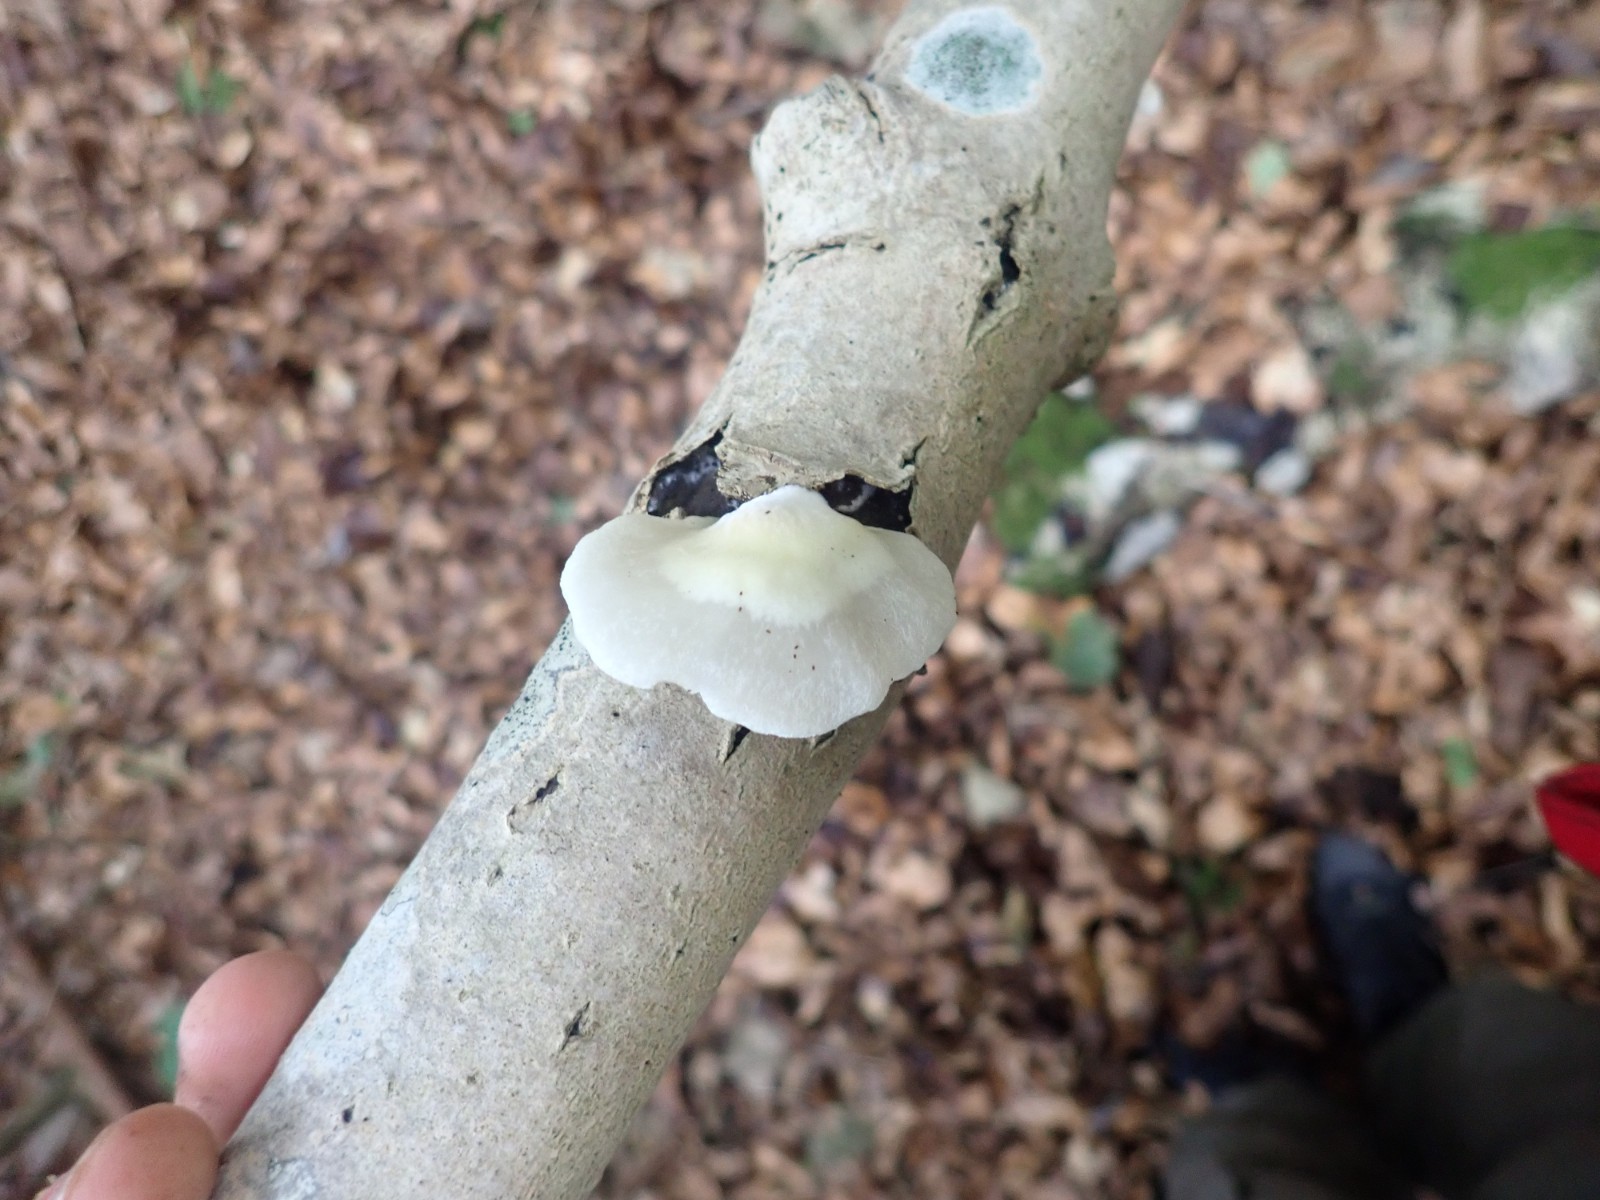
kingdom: Fungi
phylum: Basidiomycota
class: Agaricomycetes
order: Agaricales
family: Crepidotaceae
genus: Crepidotus
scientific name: Crepidotus mollis
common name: blød muslingesvamp
